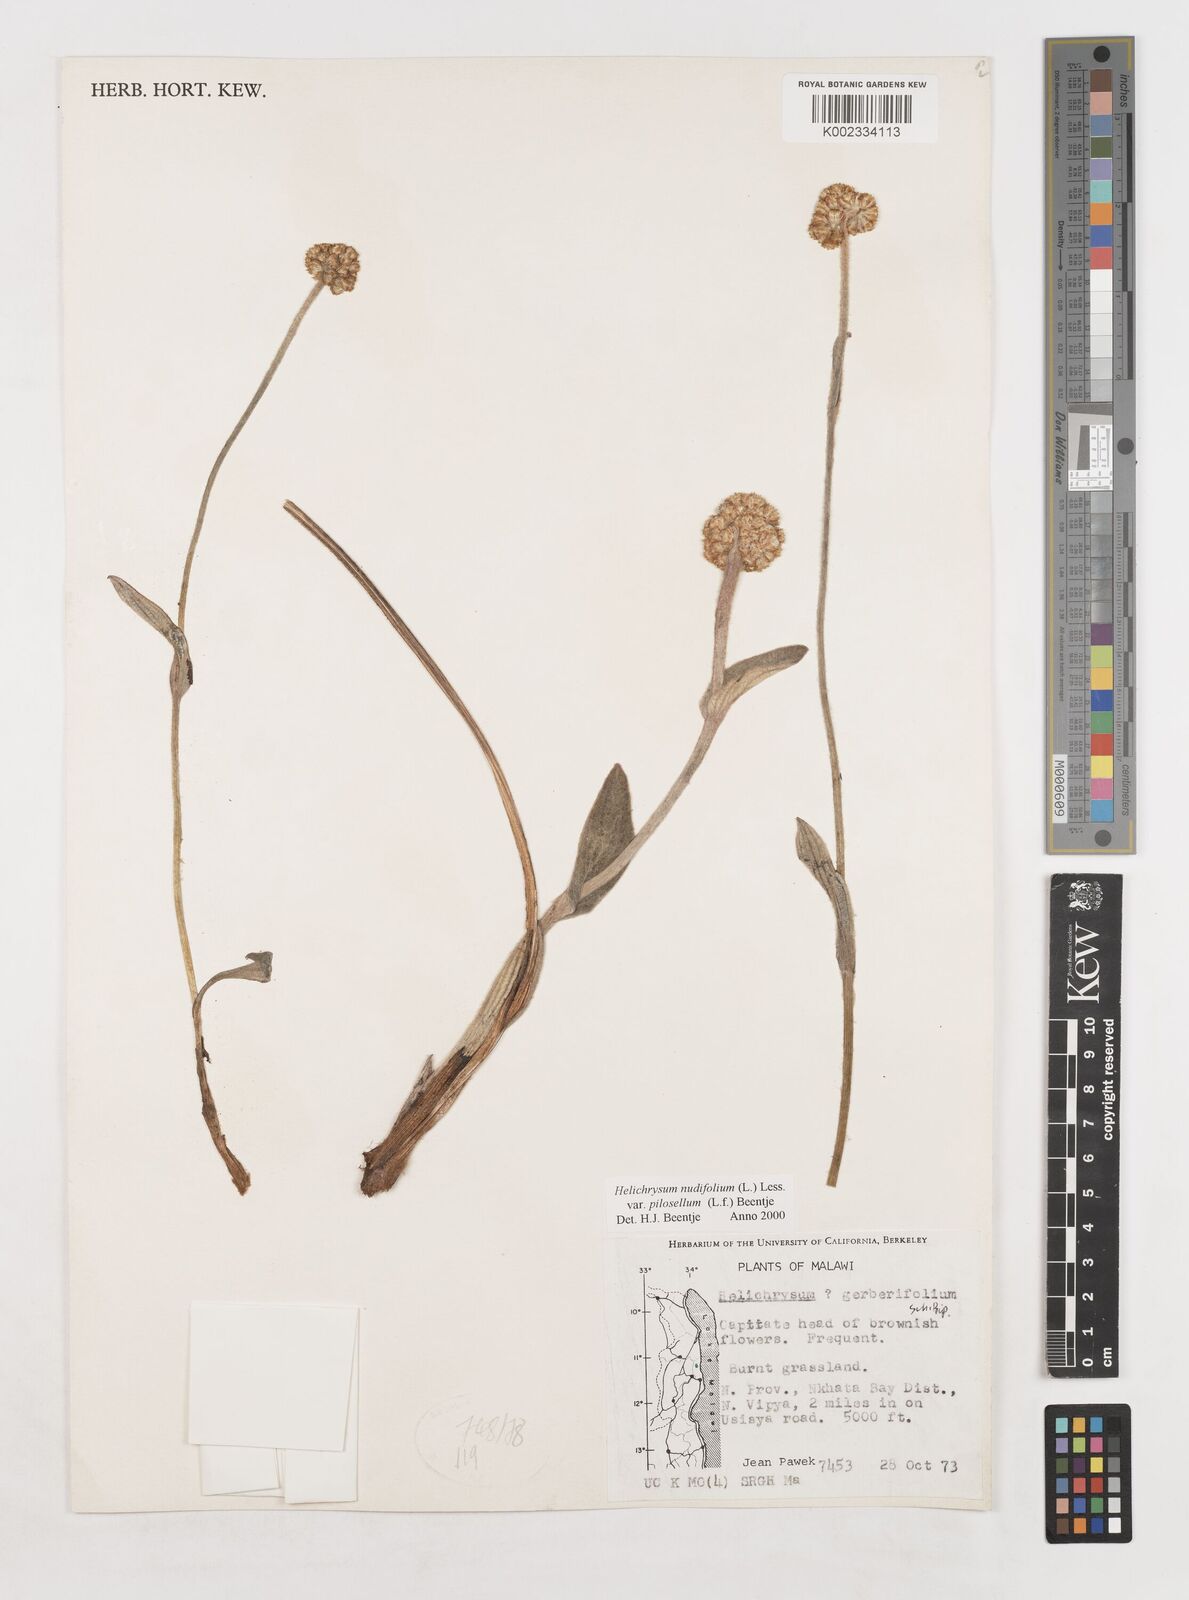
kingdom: Plantae
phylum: Tracheophyta
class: Magnoliopsida
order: Asterales
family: Asteraceae
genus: Helichrysum
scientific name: Helichrysum nudifolium
